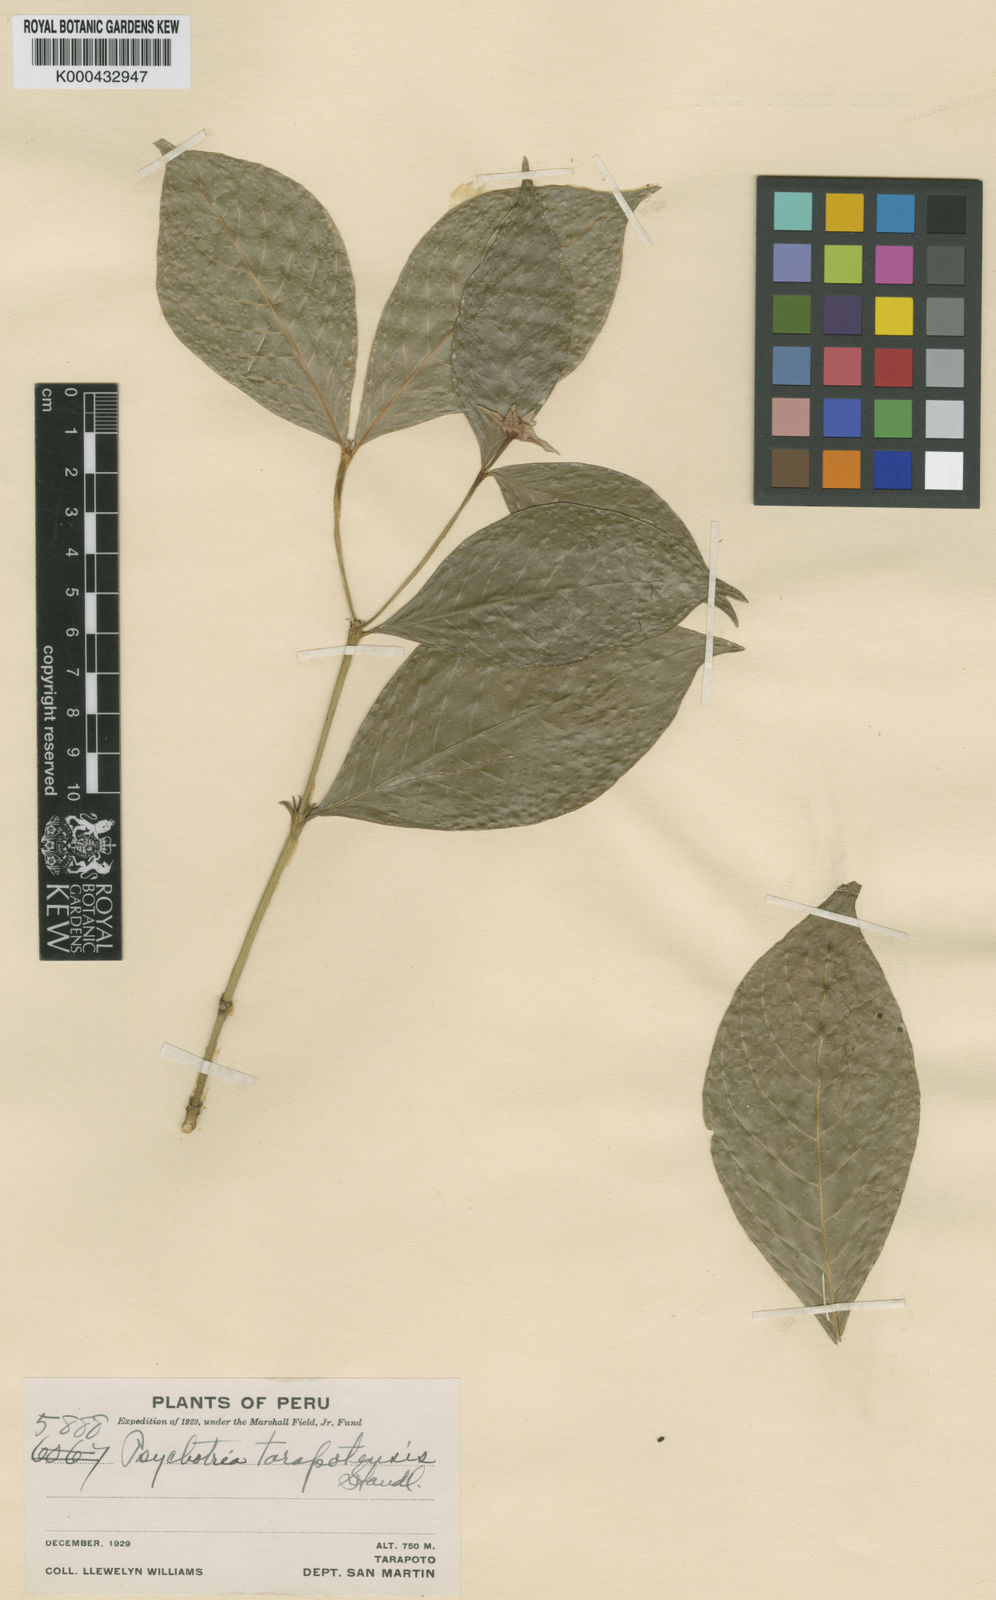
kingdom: Plantae
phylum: Tracheophyta
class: Magnoliopsida
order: Gentianales
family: Rubiaceae
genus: Palicourea
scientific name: Palicourea justiciifolia
